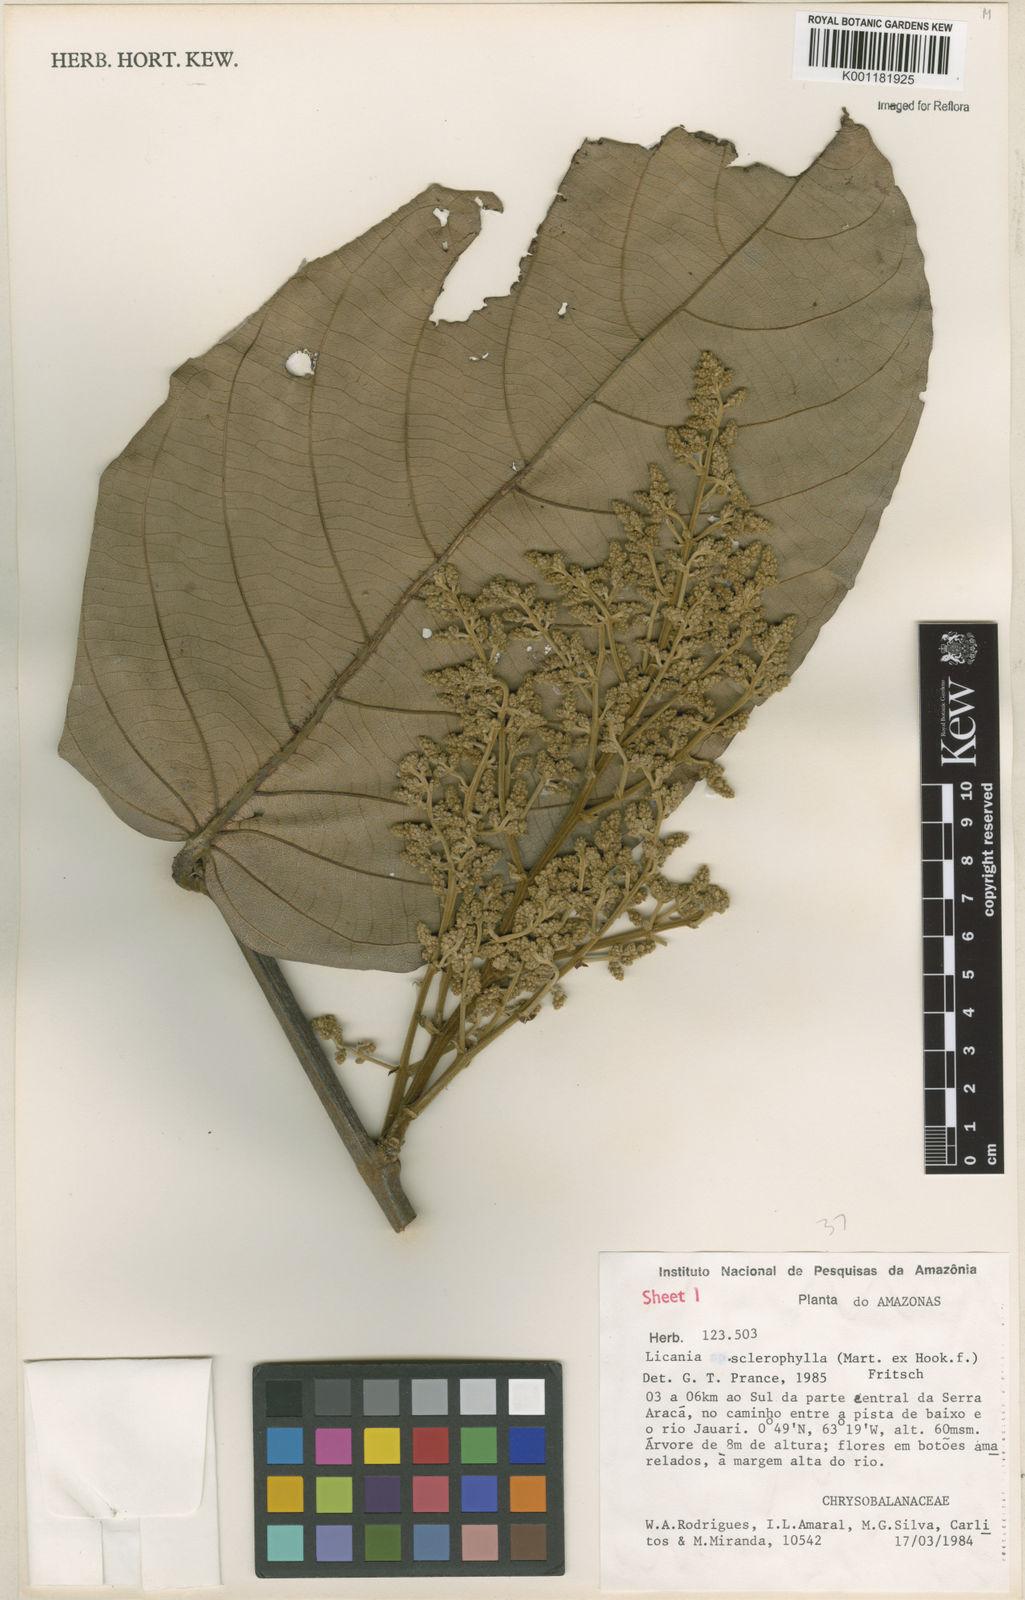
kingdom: Plantae
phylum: Tracheophyta
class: Magnoliopsida
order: Malpighiales
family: Chrysobalanaceae
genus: Leptobalanus
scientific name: Leptobalanus sclerophyllus
